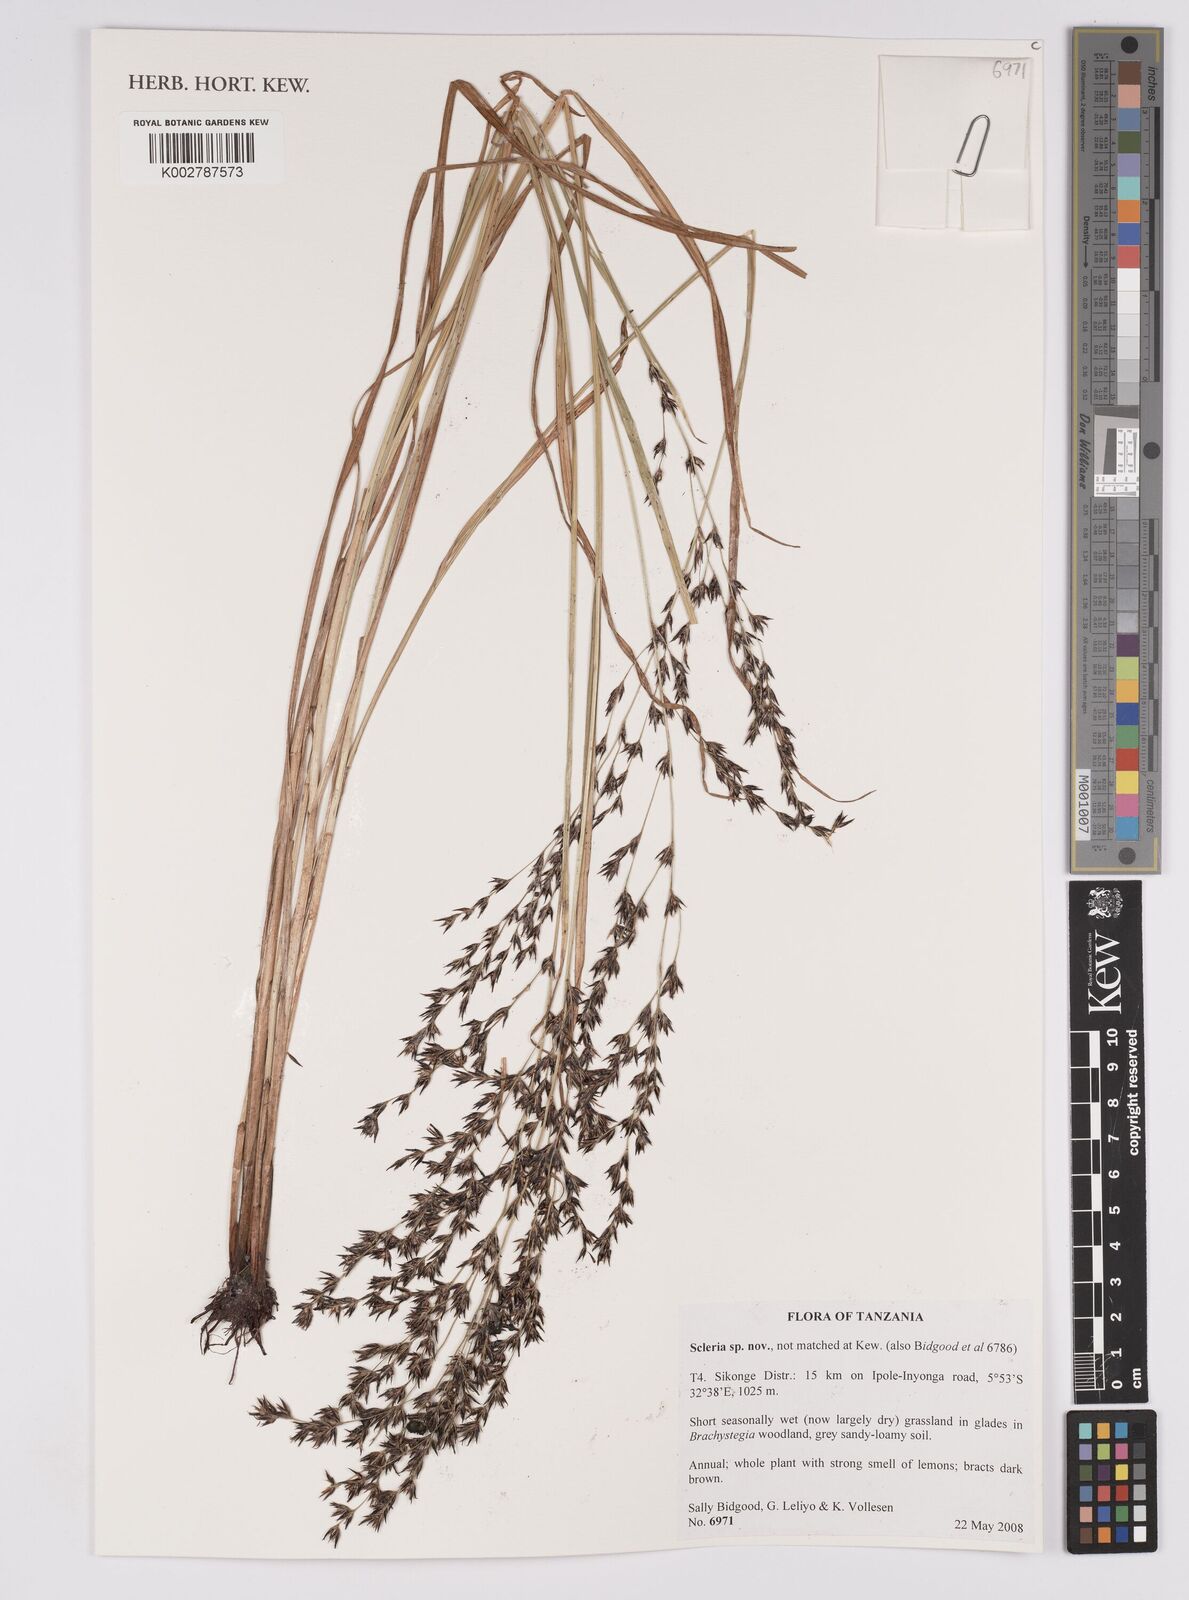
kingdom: Plantae
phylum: Tracheophyta
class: Liliopsida
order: Poales
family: Cyperaceae
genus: Scleria
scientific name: Scleria
